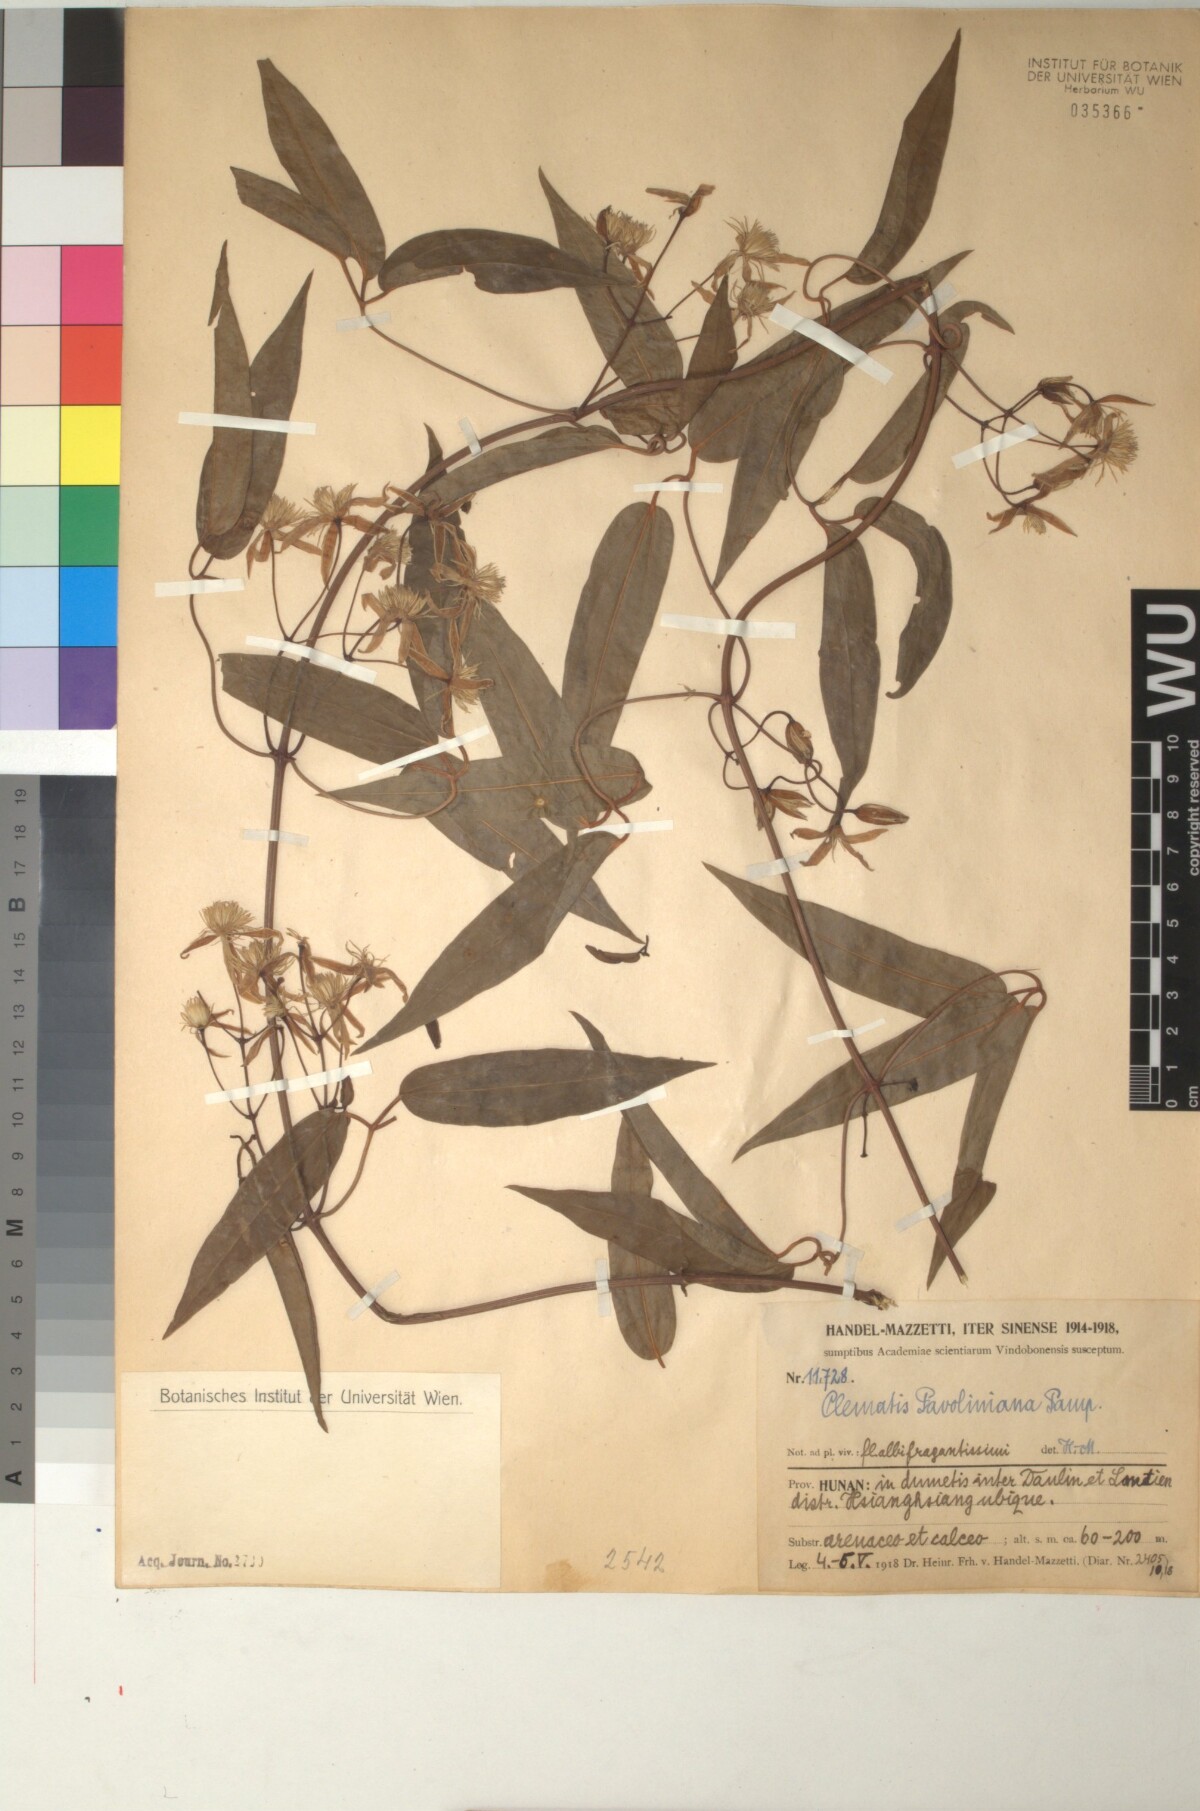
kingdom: Plantae
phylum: Tracheophyta
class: Magnoliopsida
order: Ranunculales
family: Ranunculaceae
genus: Clematis
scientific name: Clematis finetiana
